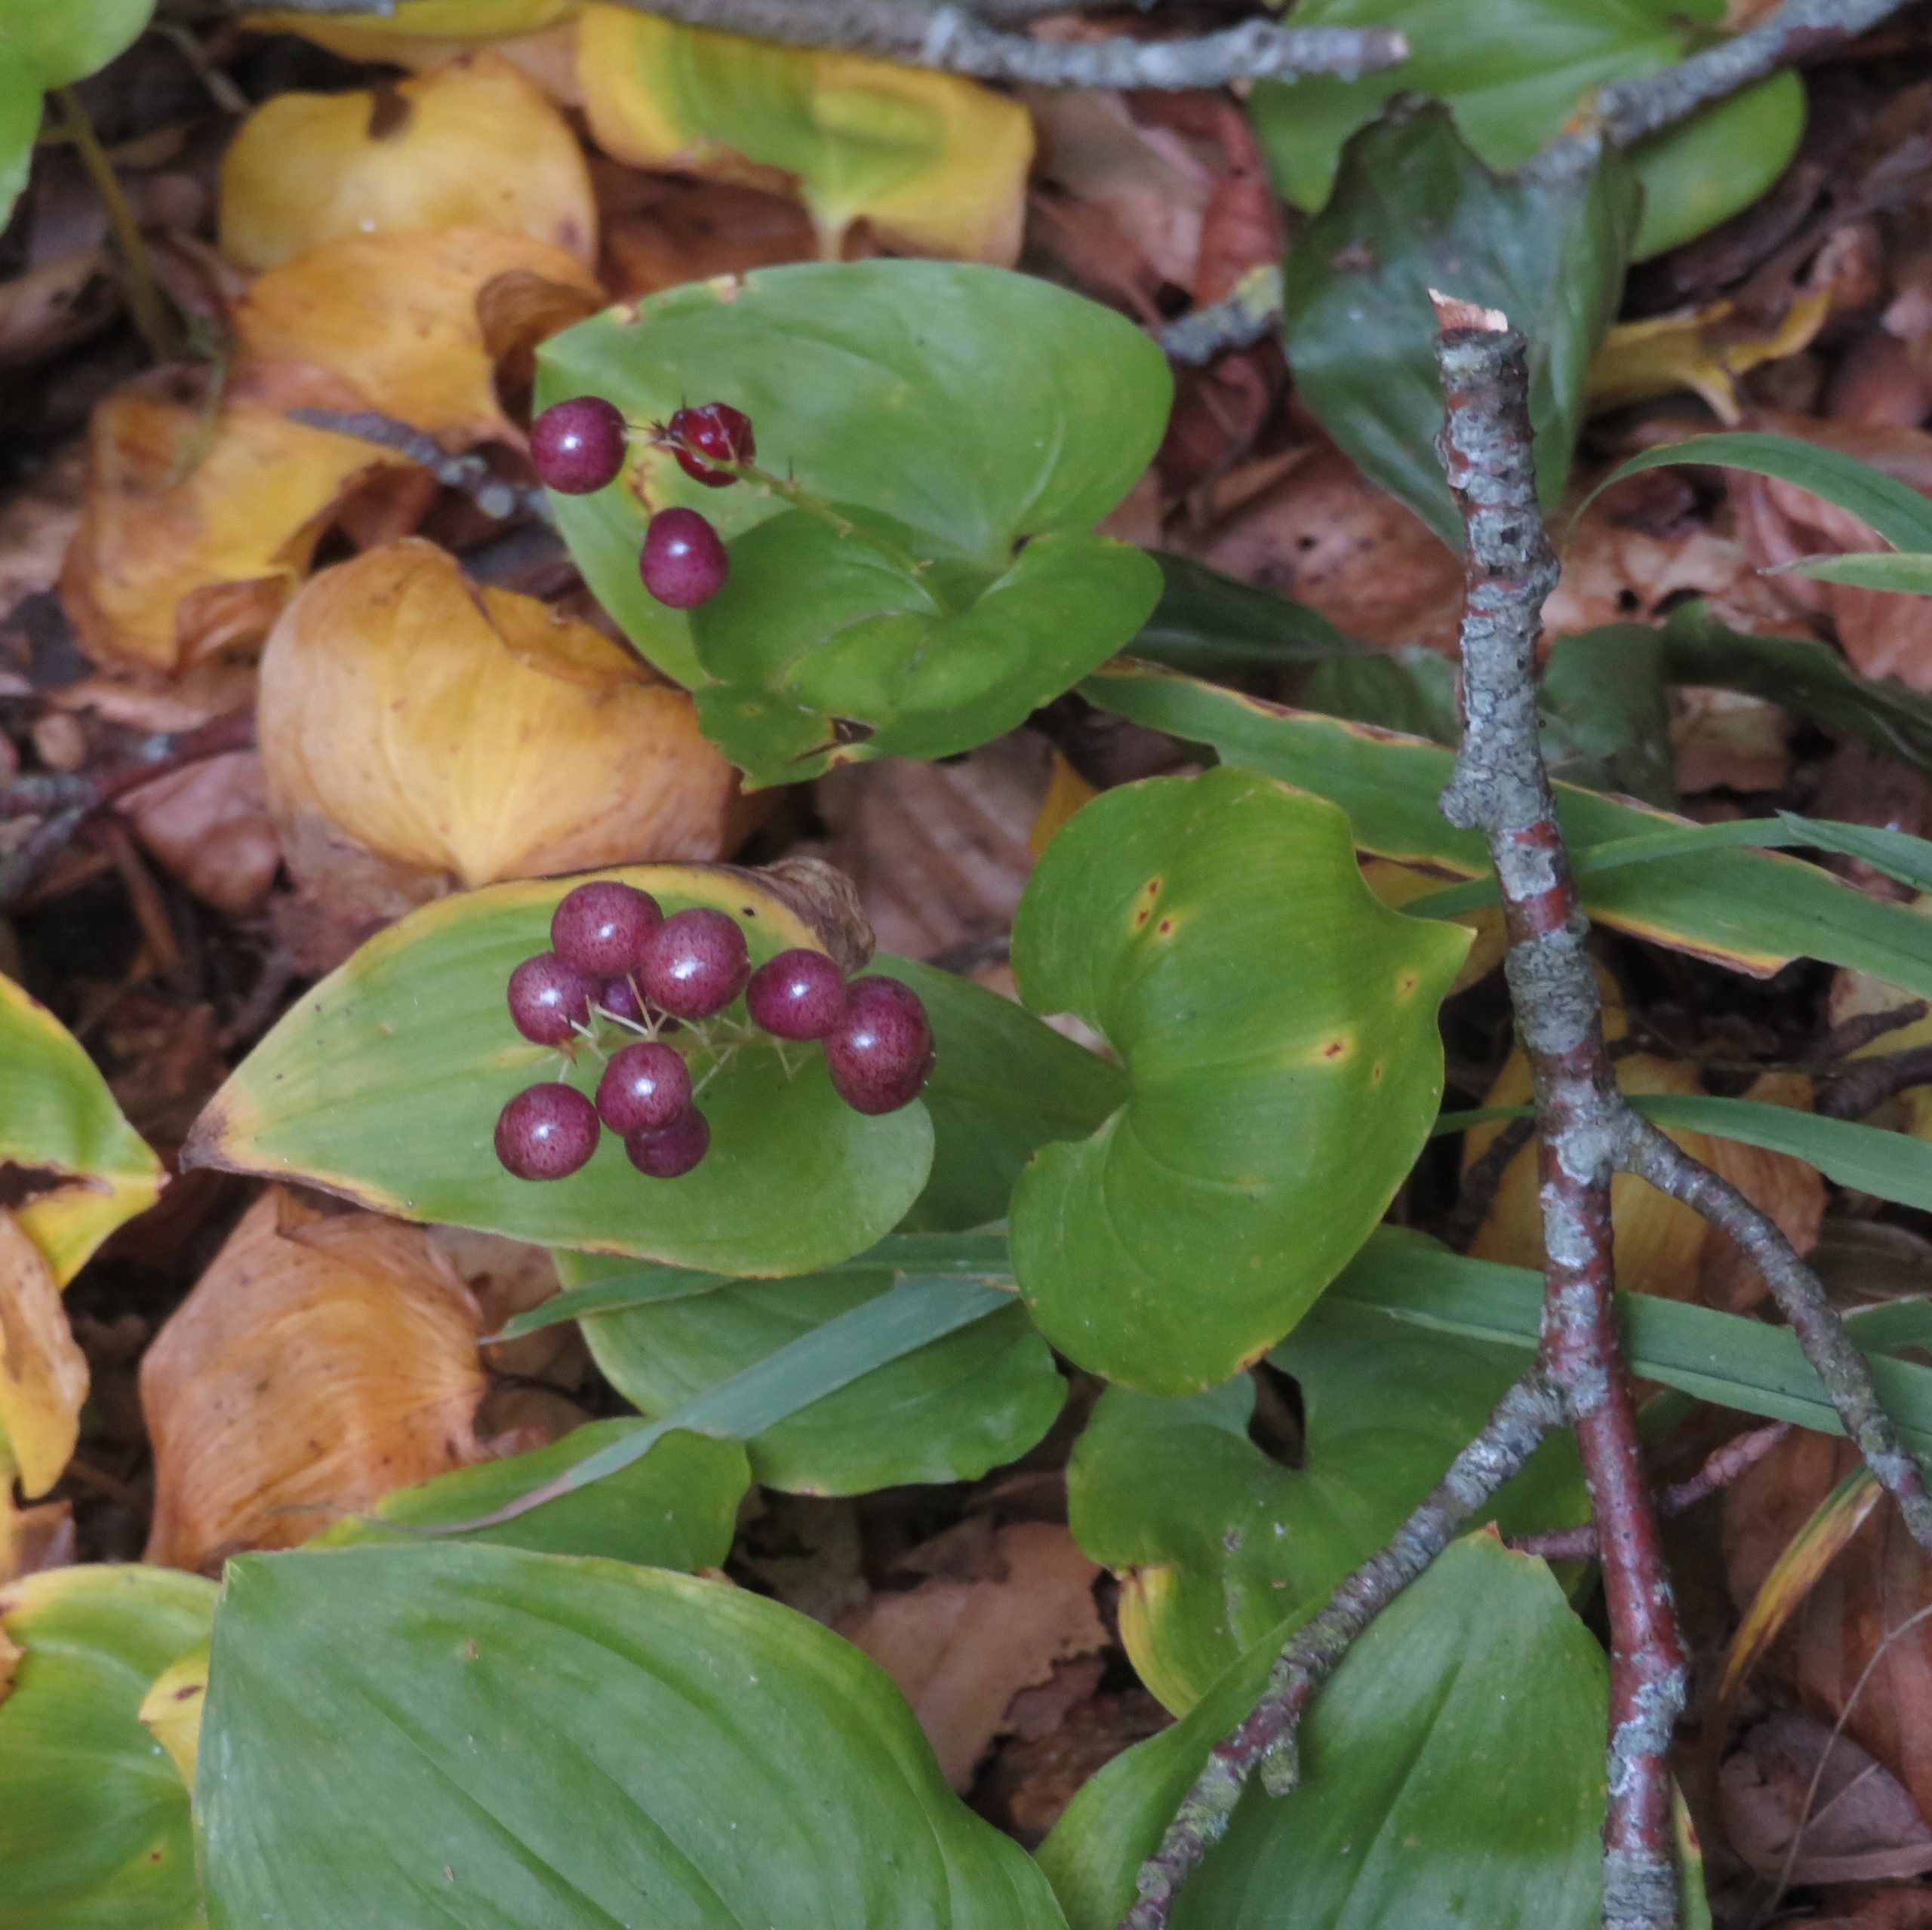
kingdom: Plantae
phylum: Tracheophyta
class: Liliopsida
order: Asparagales
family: Asparagaceae
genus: Maianthemum
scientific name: Maianthemum bifolium
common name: Majblomst
